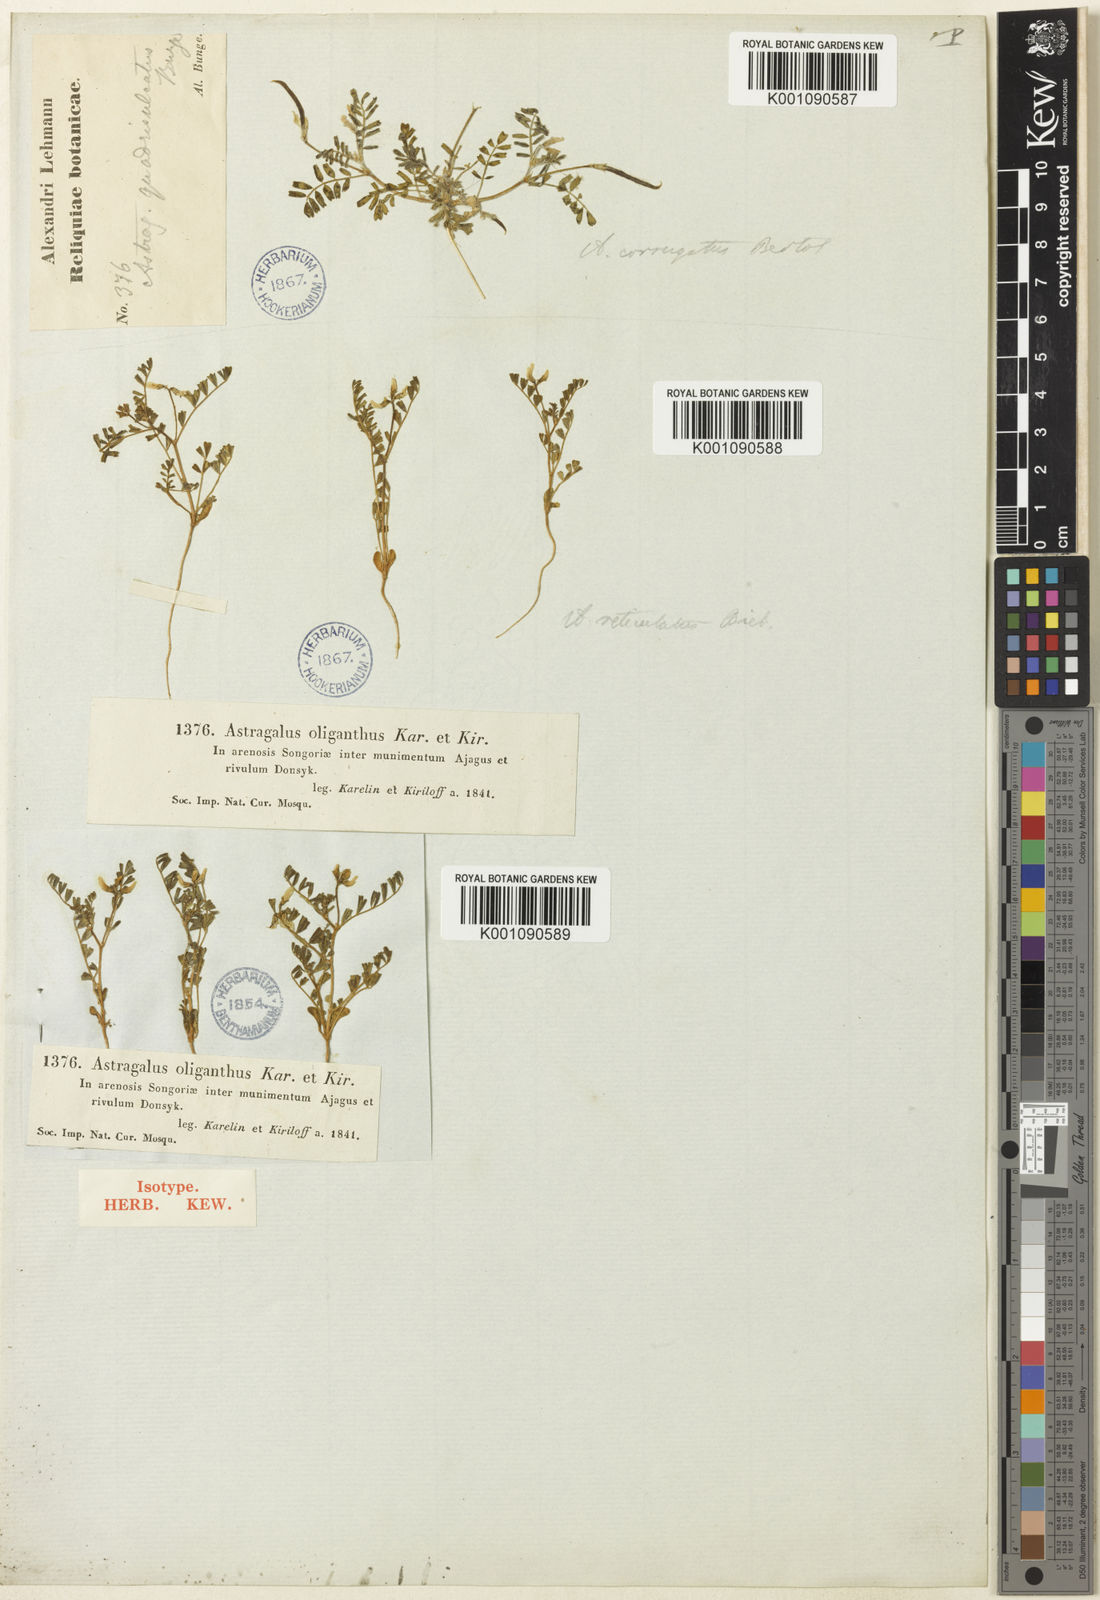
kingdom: Plantae
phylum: Tracheophyta
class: Magnoliopsida
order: Fabales
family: Fabaceae
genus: Astragalus
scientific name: Astragalus
